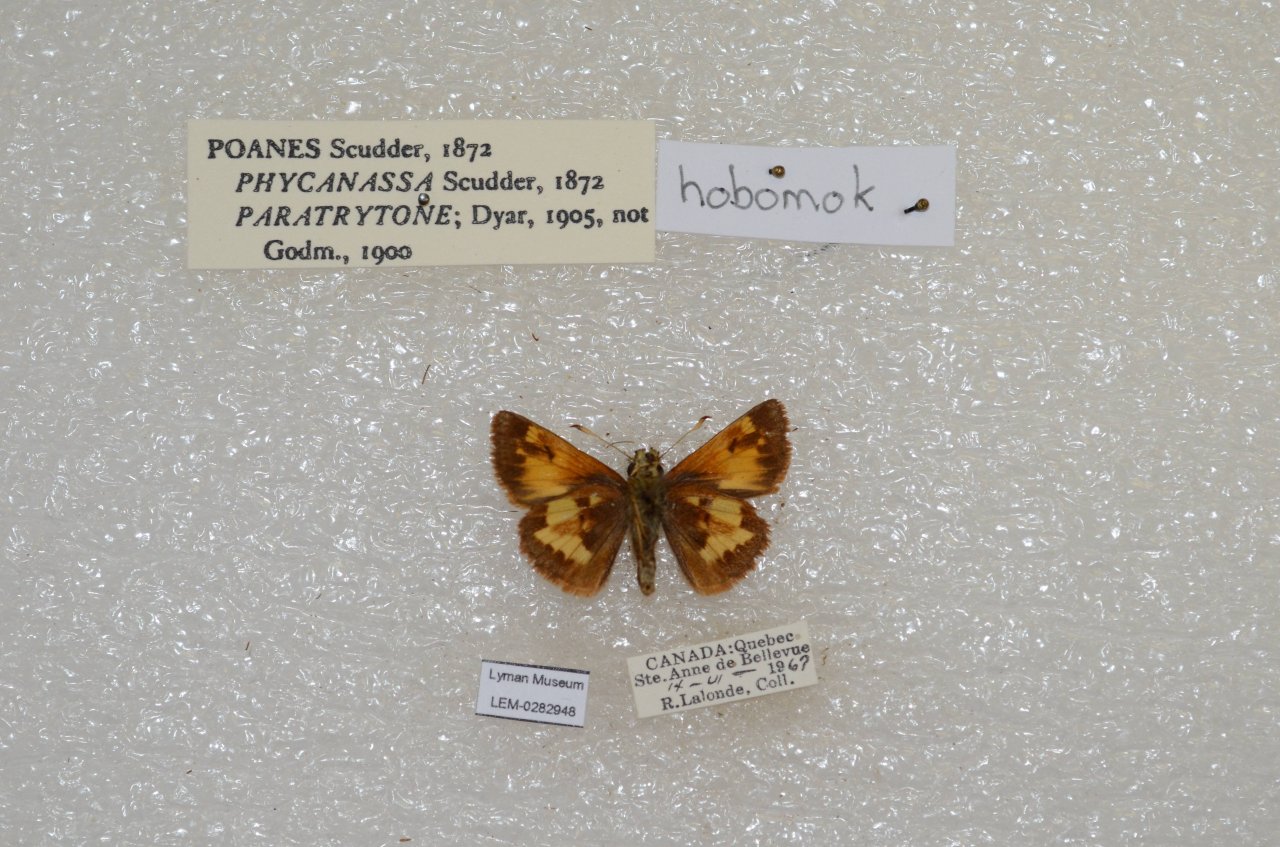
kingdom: Animalia
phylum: Arthropoda
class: Insecta
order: Lepidoptera
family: Hesperiidae
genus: Lon
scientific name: Lon hobomok
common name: Hobomok Skipper
